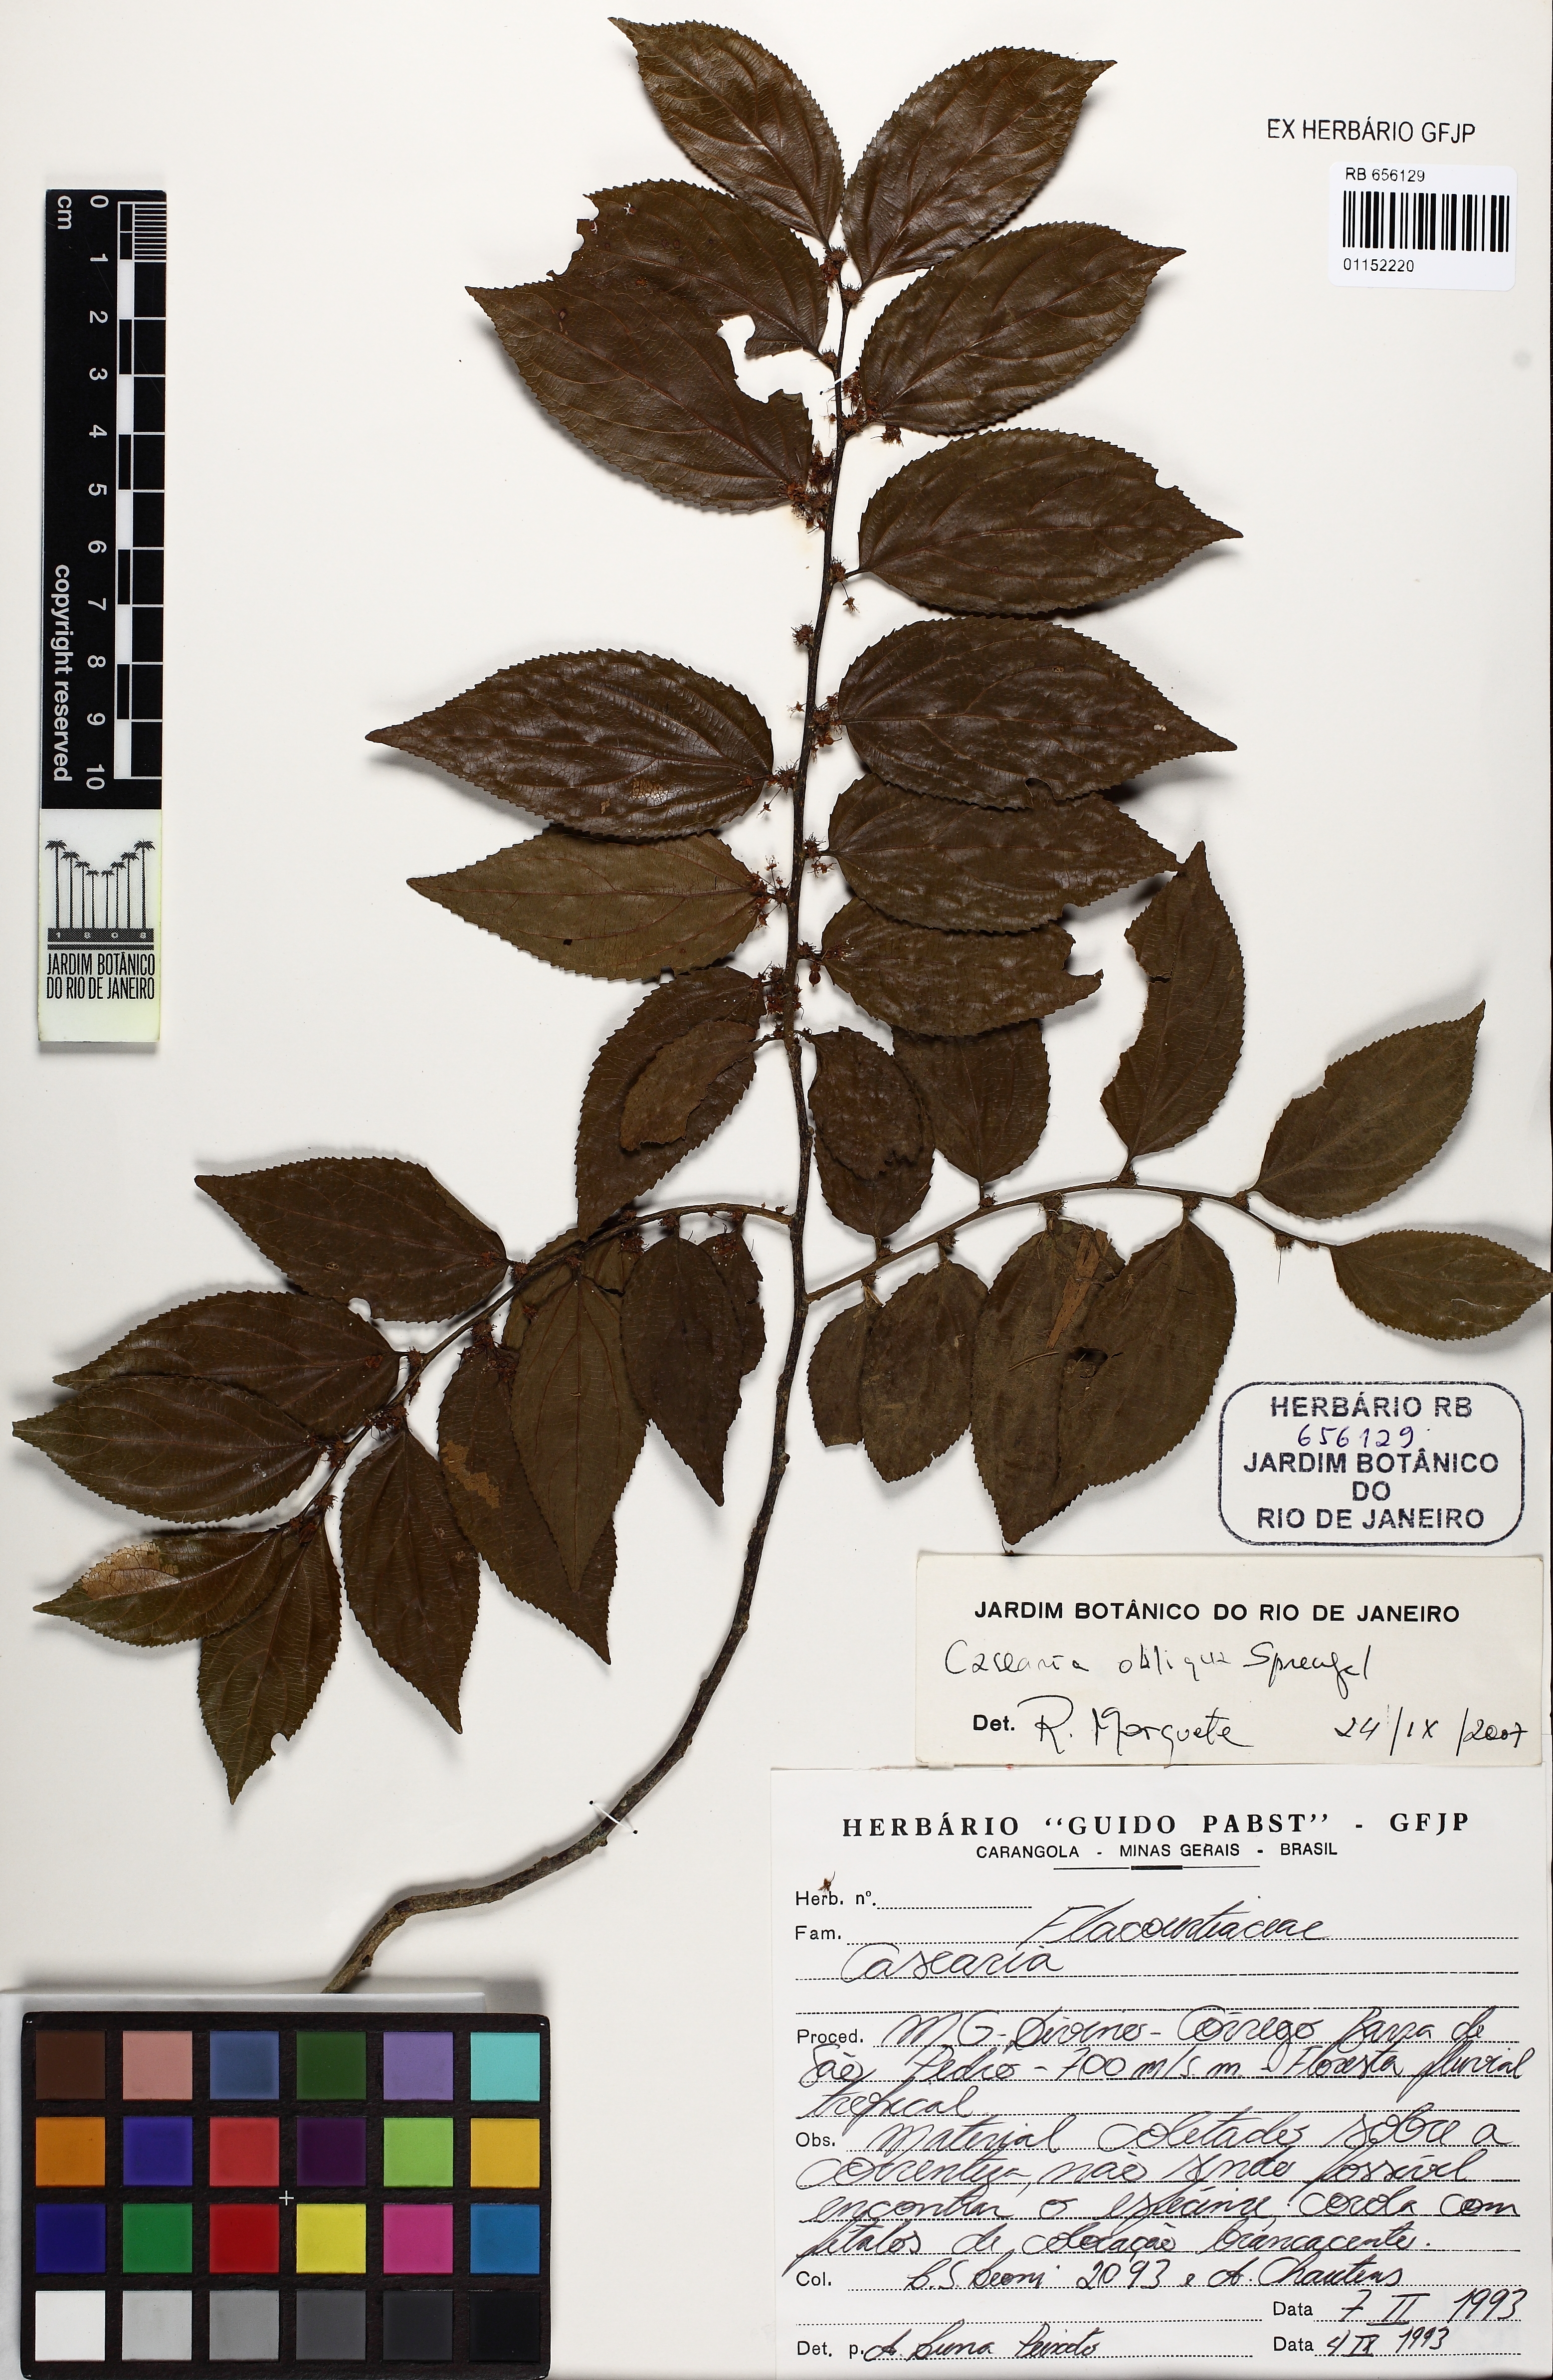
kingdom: Plantae
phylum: Tracheophyta
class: Magnoliopsida
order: Malpighiales
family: Salicaceae
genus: Casearia
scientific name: Casearia
